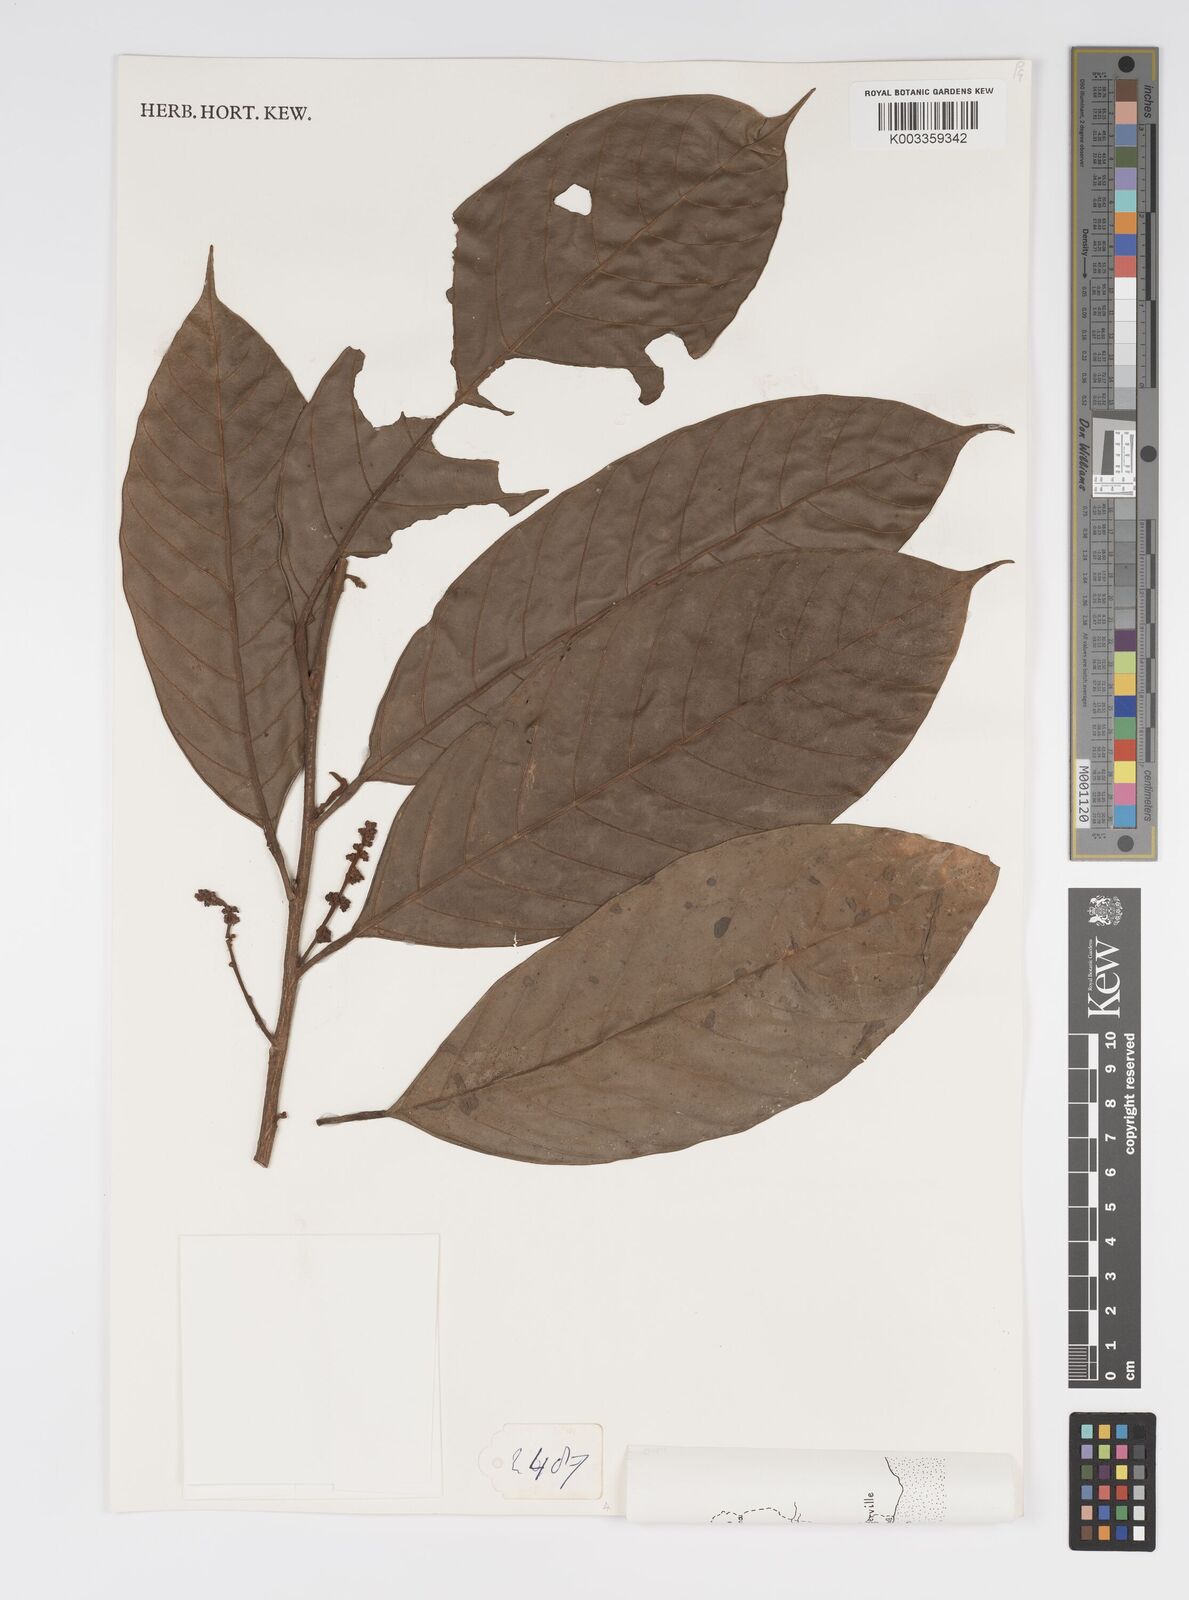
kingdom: Plantae
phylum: Tracheophyta
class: Magnoliopsida
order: Malpighiales
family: Salicaceae
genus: Oncoba
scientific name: Oncoba
